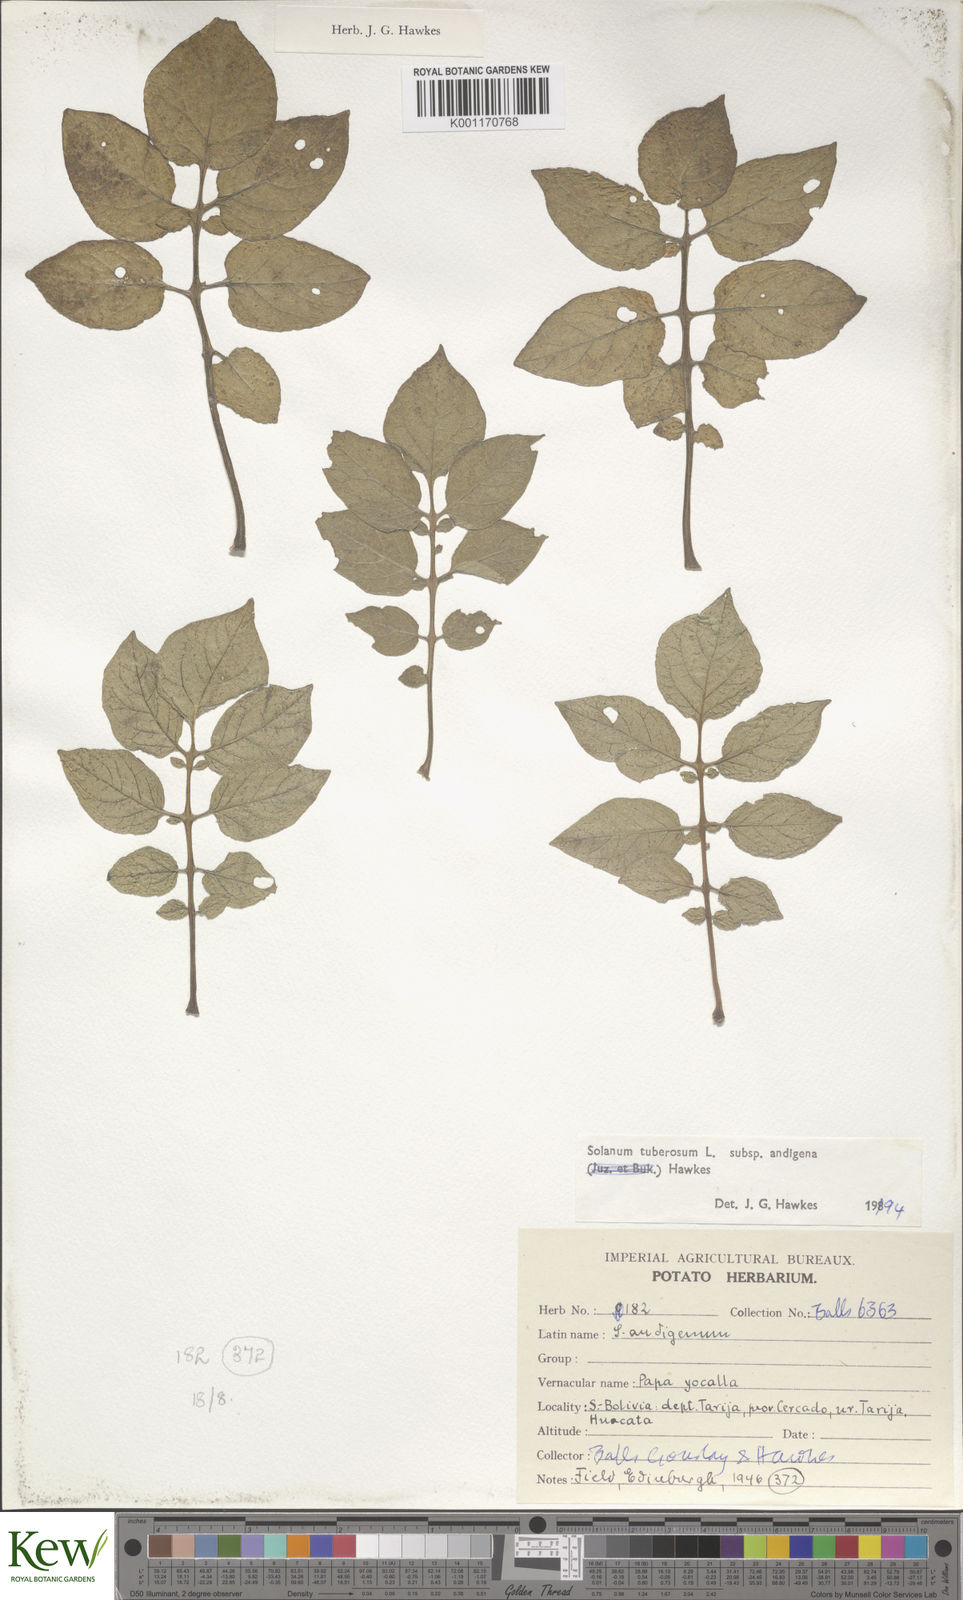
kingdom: Plantae
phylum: Tracheophyta
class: Magnoliopsida
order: Solanales
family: Solanaceae
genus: Solanum
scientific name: Solanum tuberosum
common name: Potato
